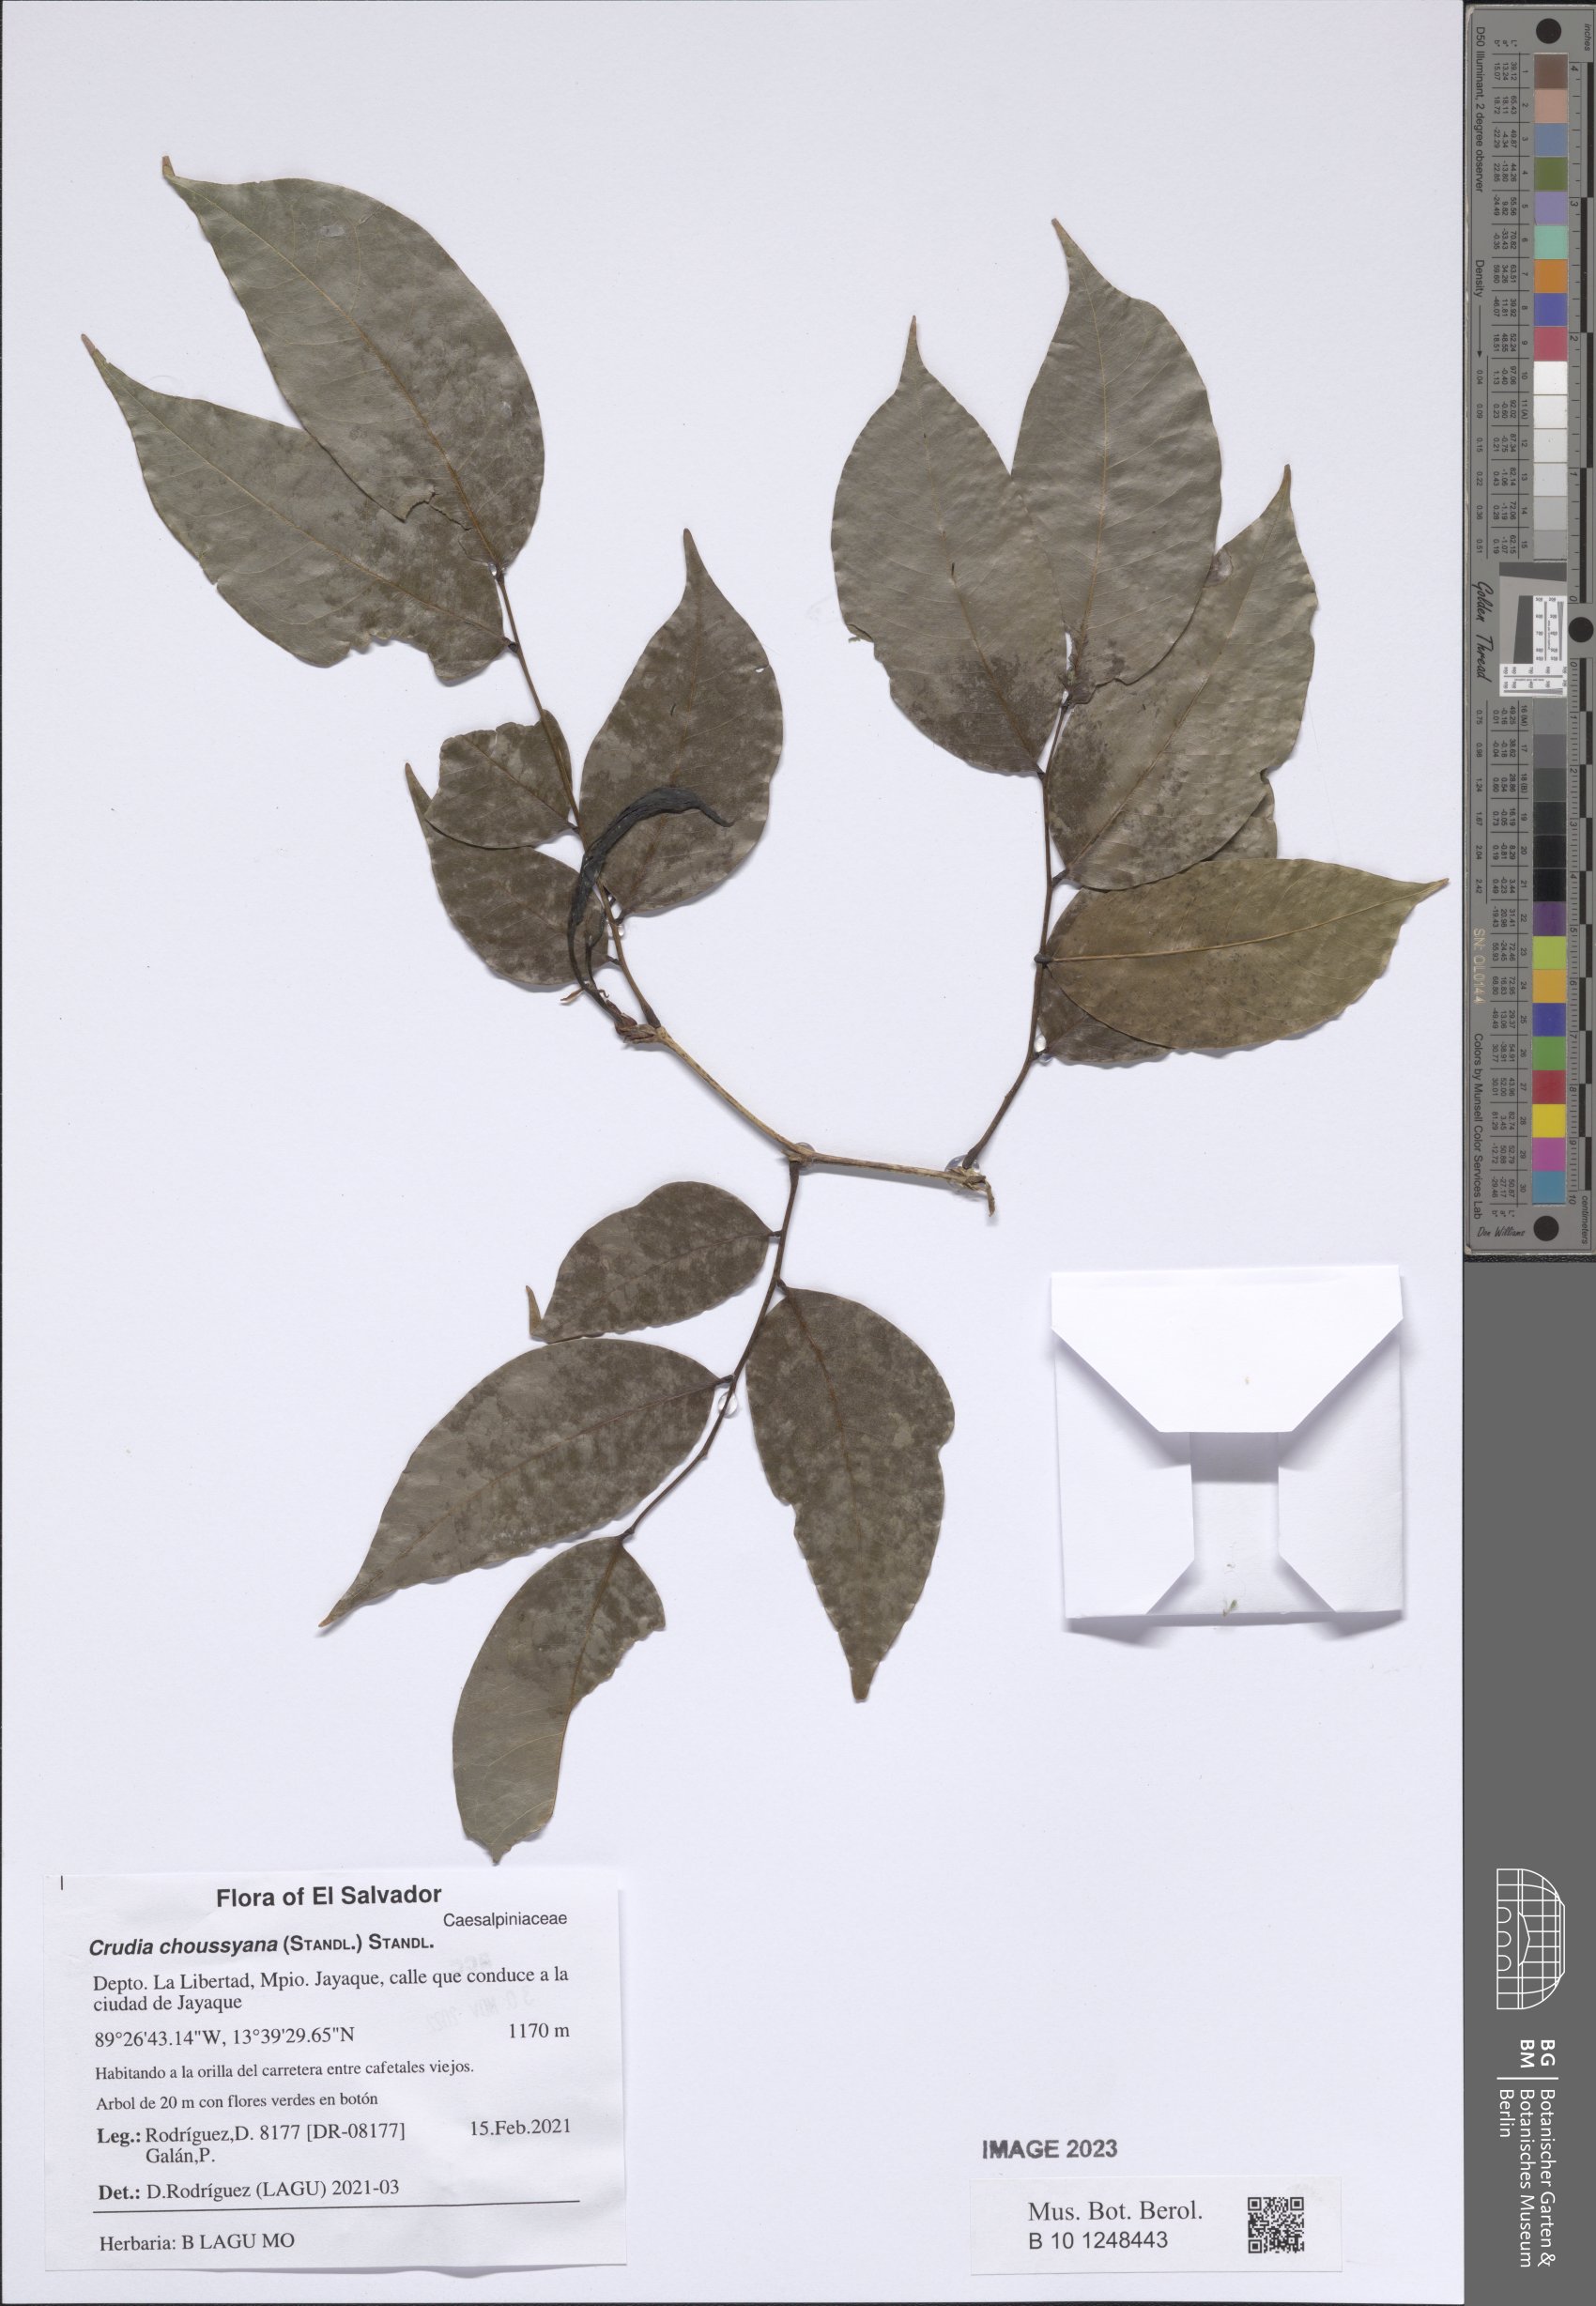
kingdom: Plantae
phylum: Tracheophyta
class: Magnoliopsida
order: Fabales
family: Fabaceae
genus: Crudia
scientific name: Crudia acuminata
